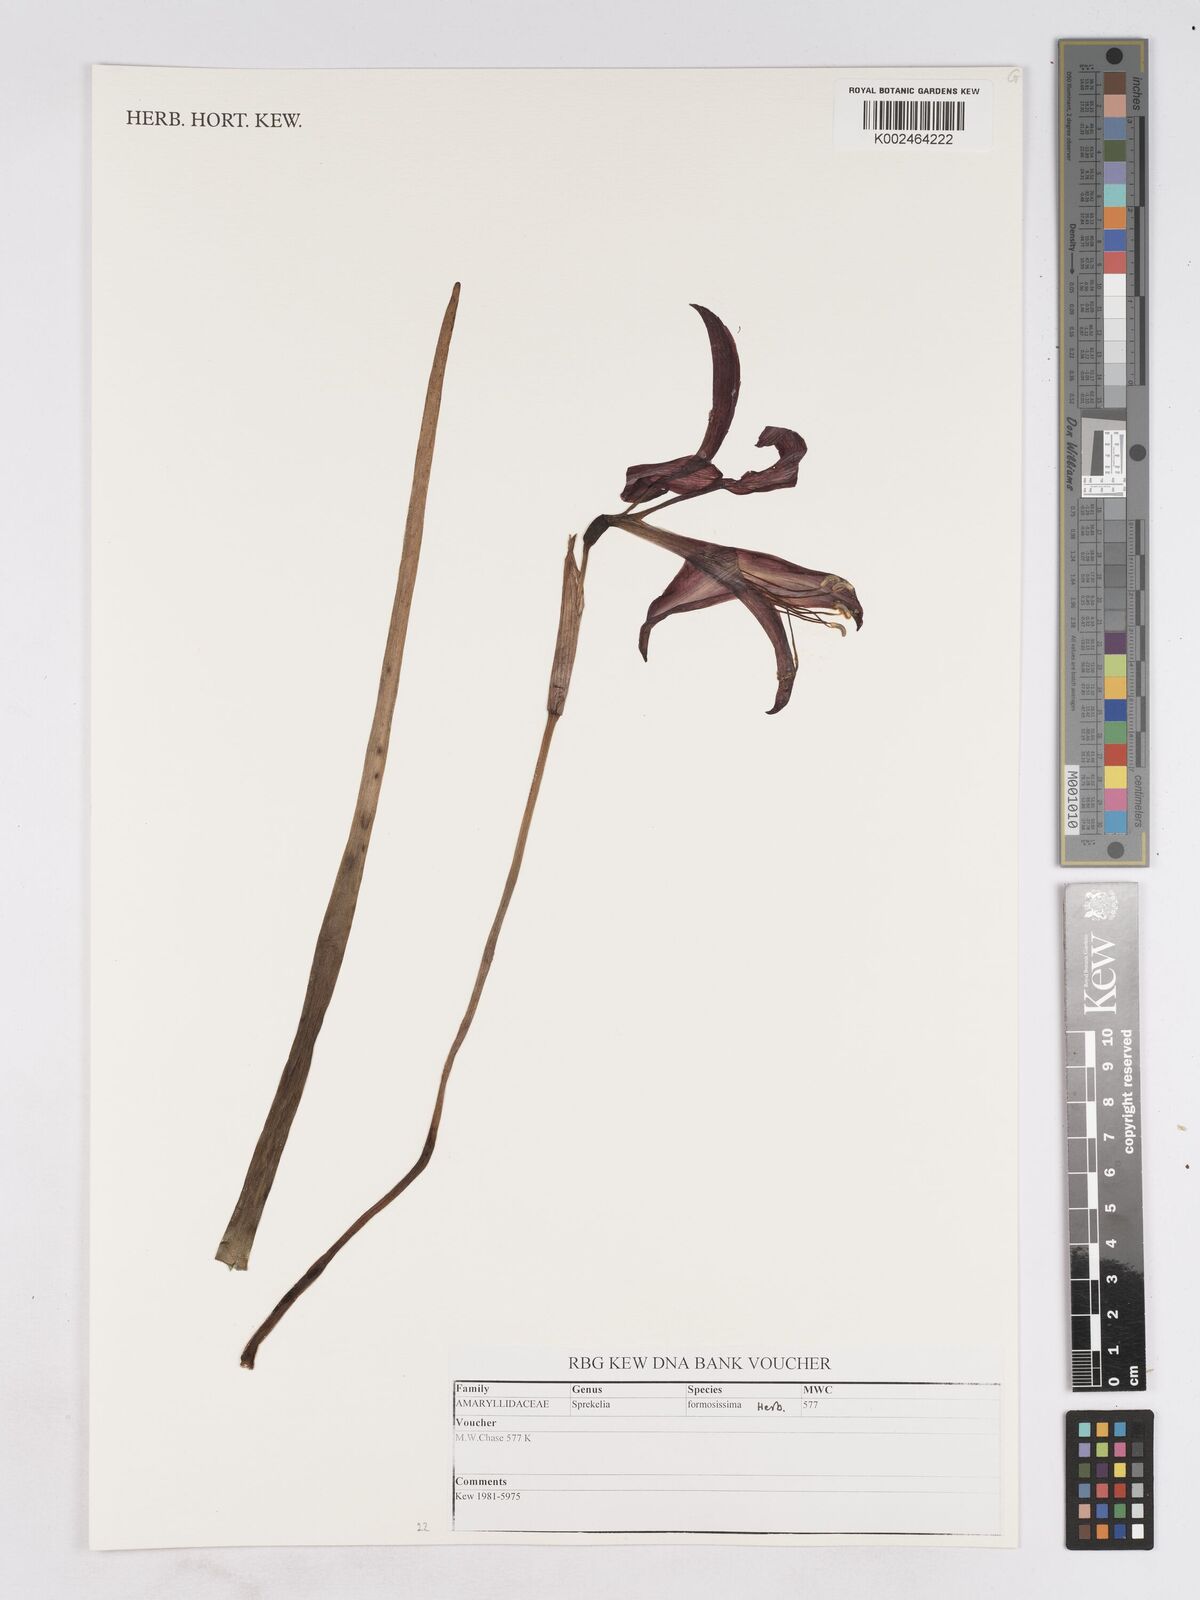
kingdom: Plantae
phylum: Tracheophyta
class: Liliopsida
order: Asparagales
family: Amaryllidaceae
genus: Sprekelia
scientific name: Sprekelia formosissima
